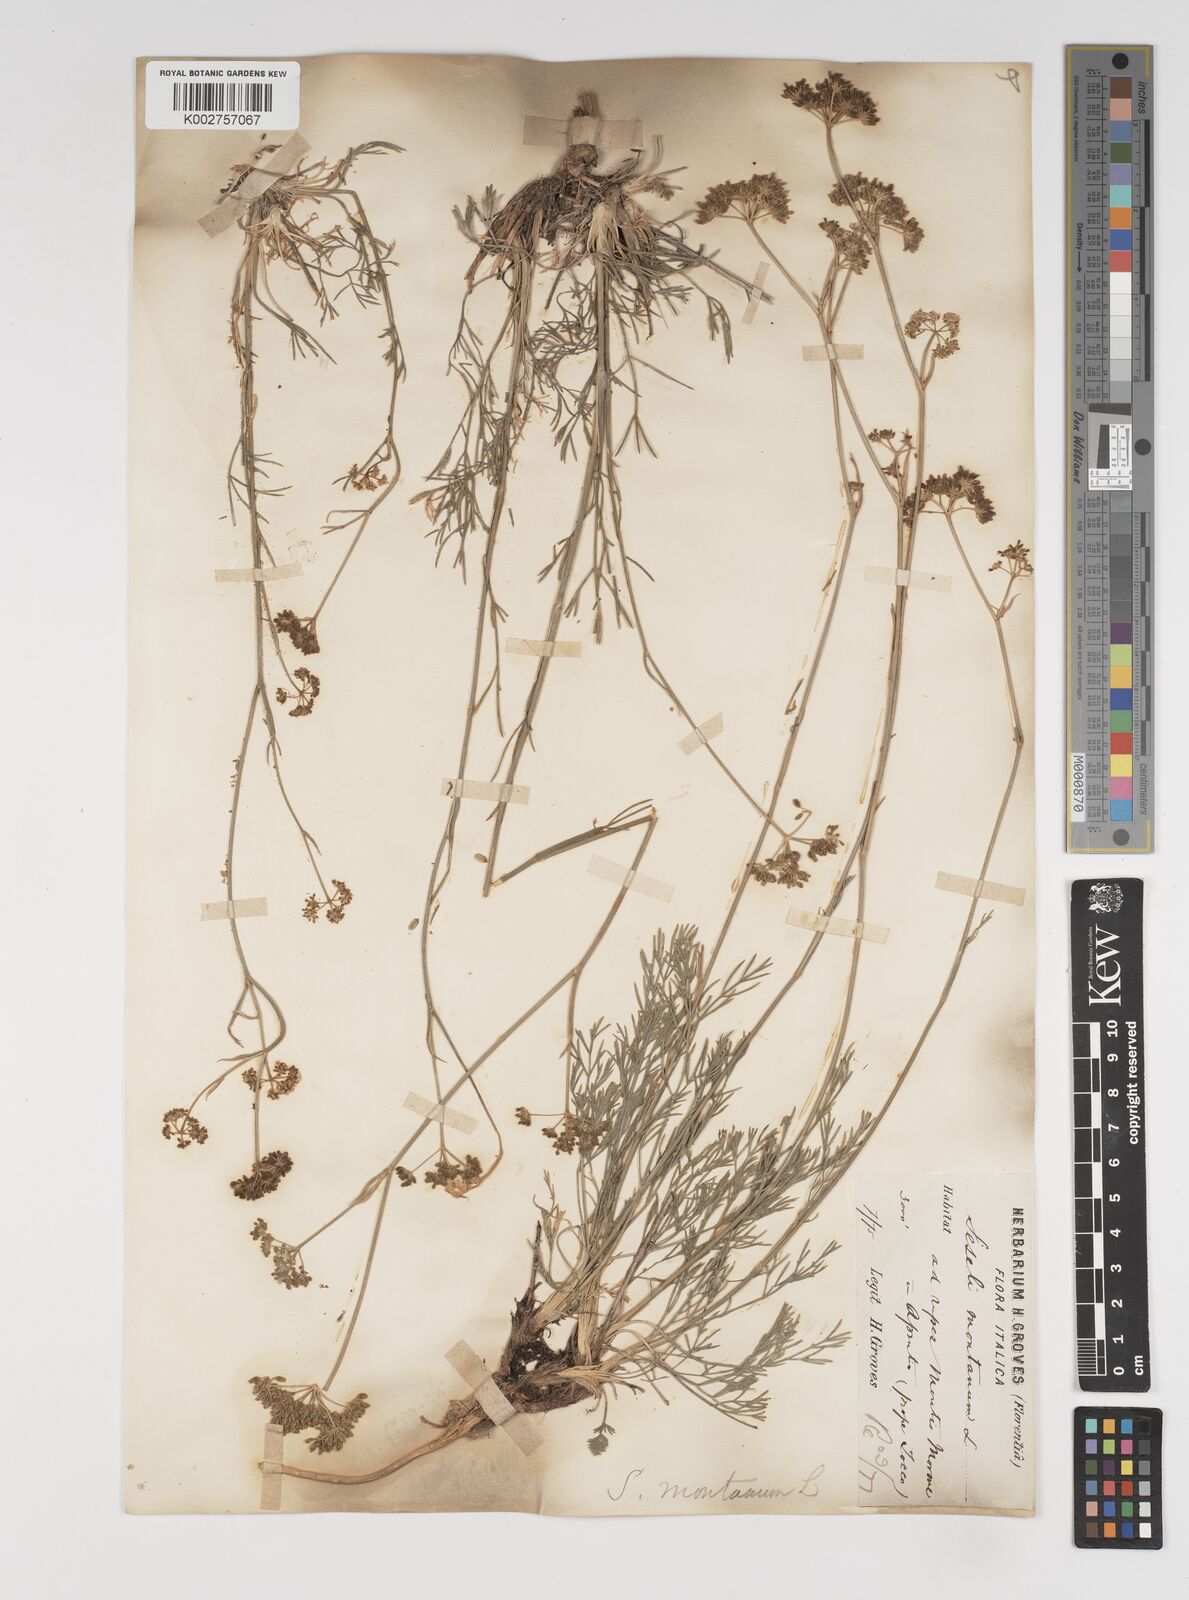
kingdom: Plantae
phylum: Tracheophyta
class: Magnoliopsida
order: Apiales
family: Apiaceae
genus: Seseli
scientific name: Seseli montanum
